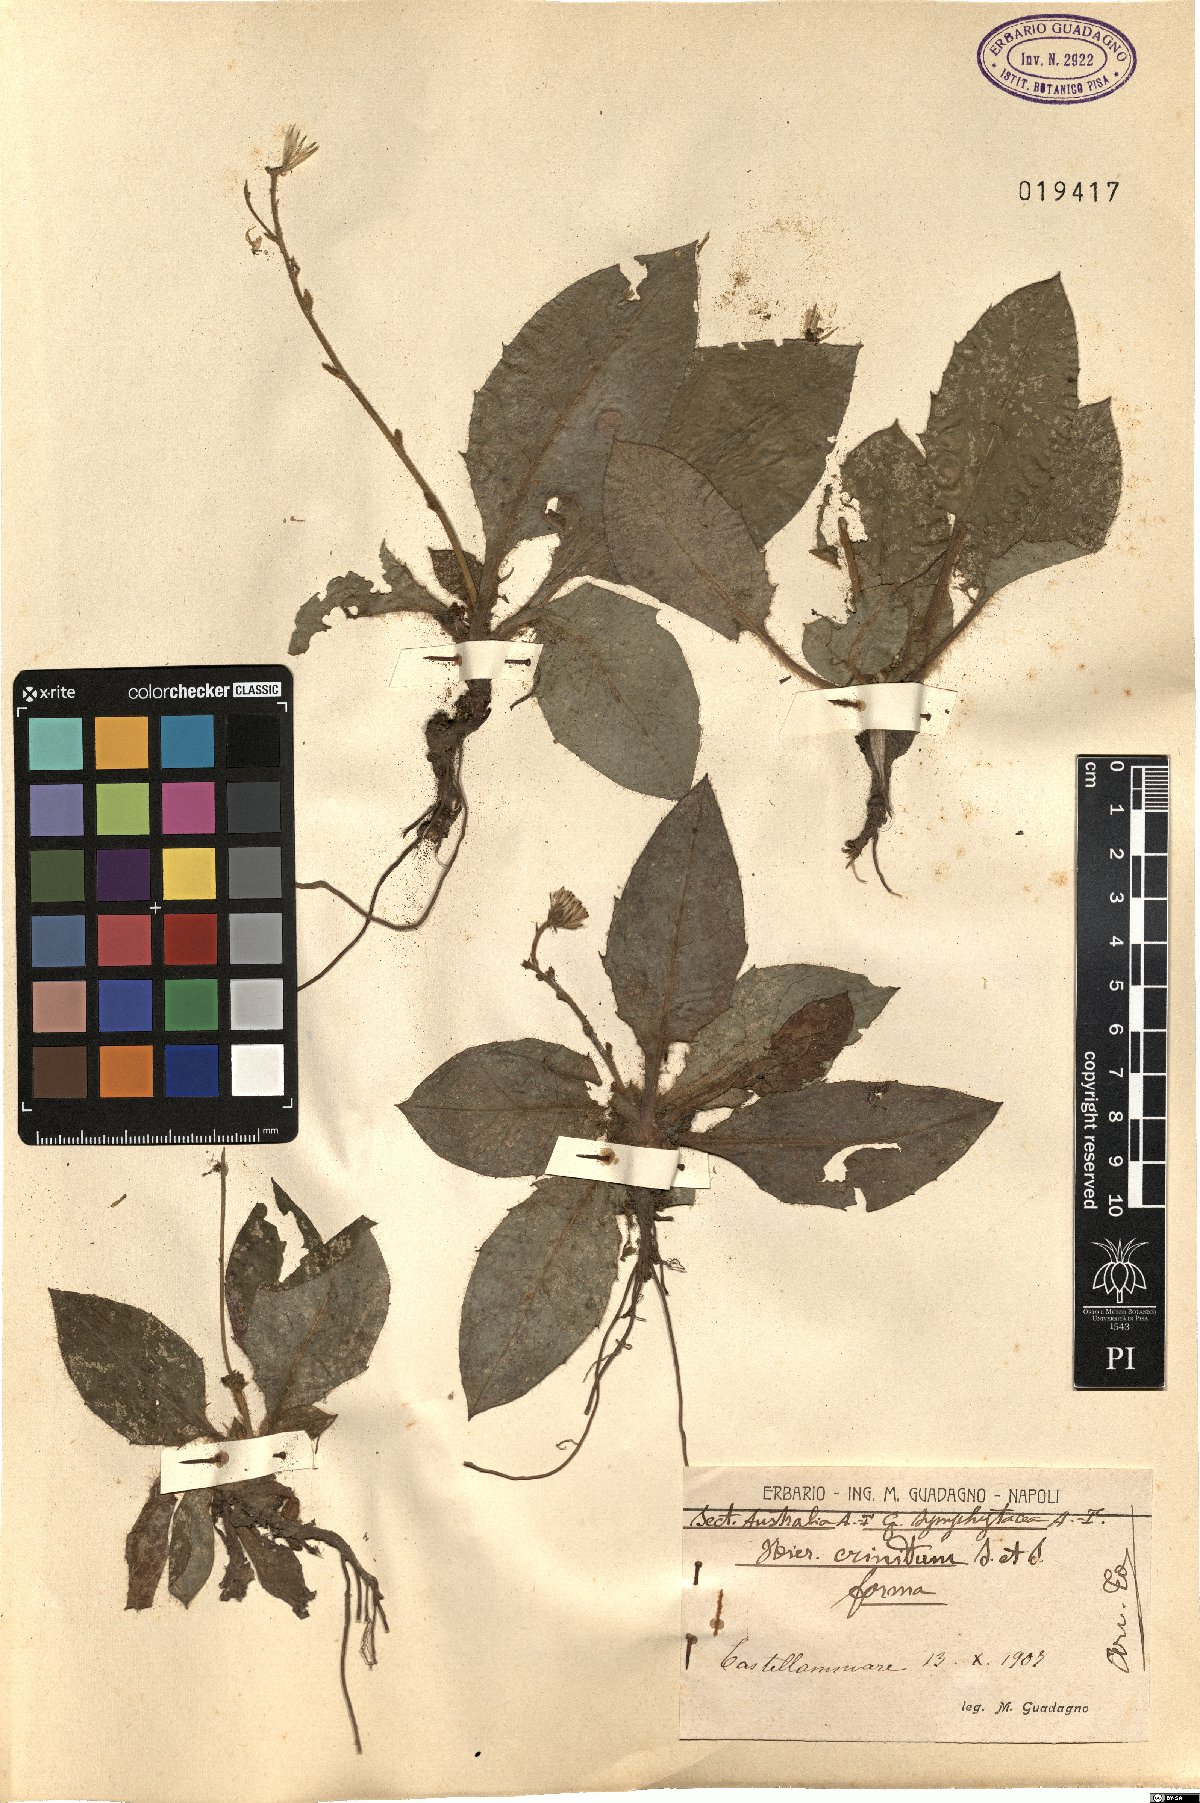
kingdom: Plantae
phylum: Tracheophyta
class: Magnoliopsida
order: Asterales
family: Asteraceae
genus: Hieracium
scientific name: Hieracium racemosum
